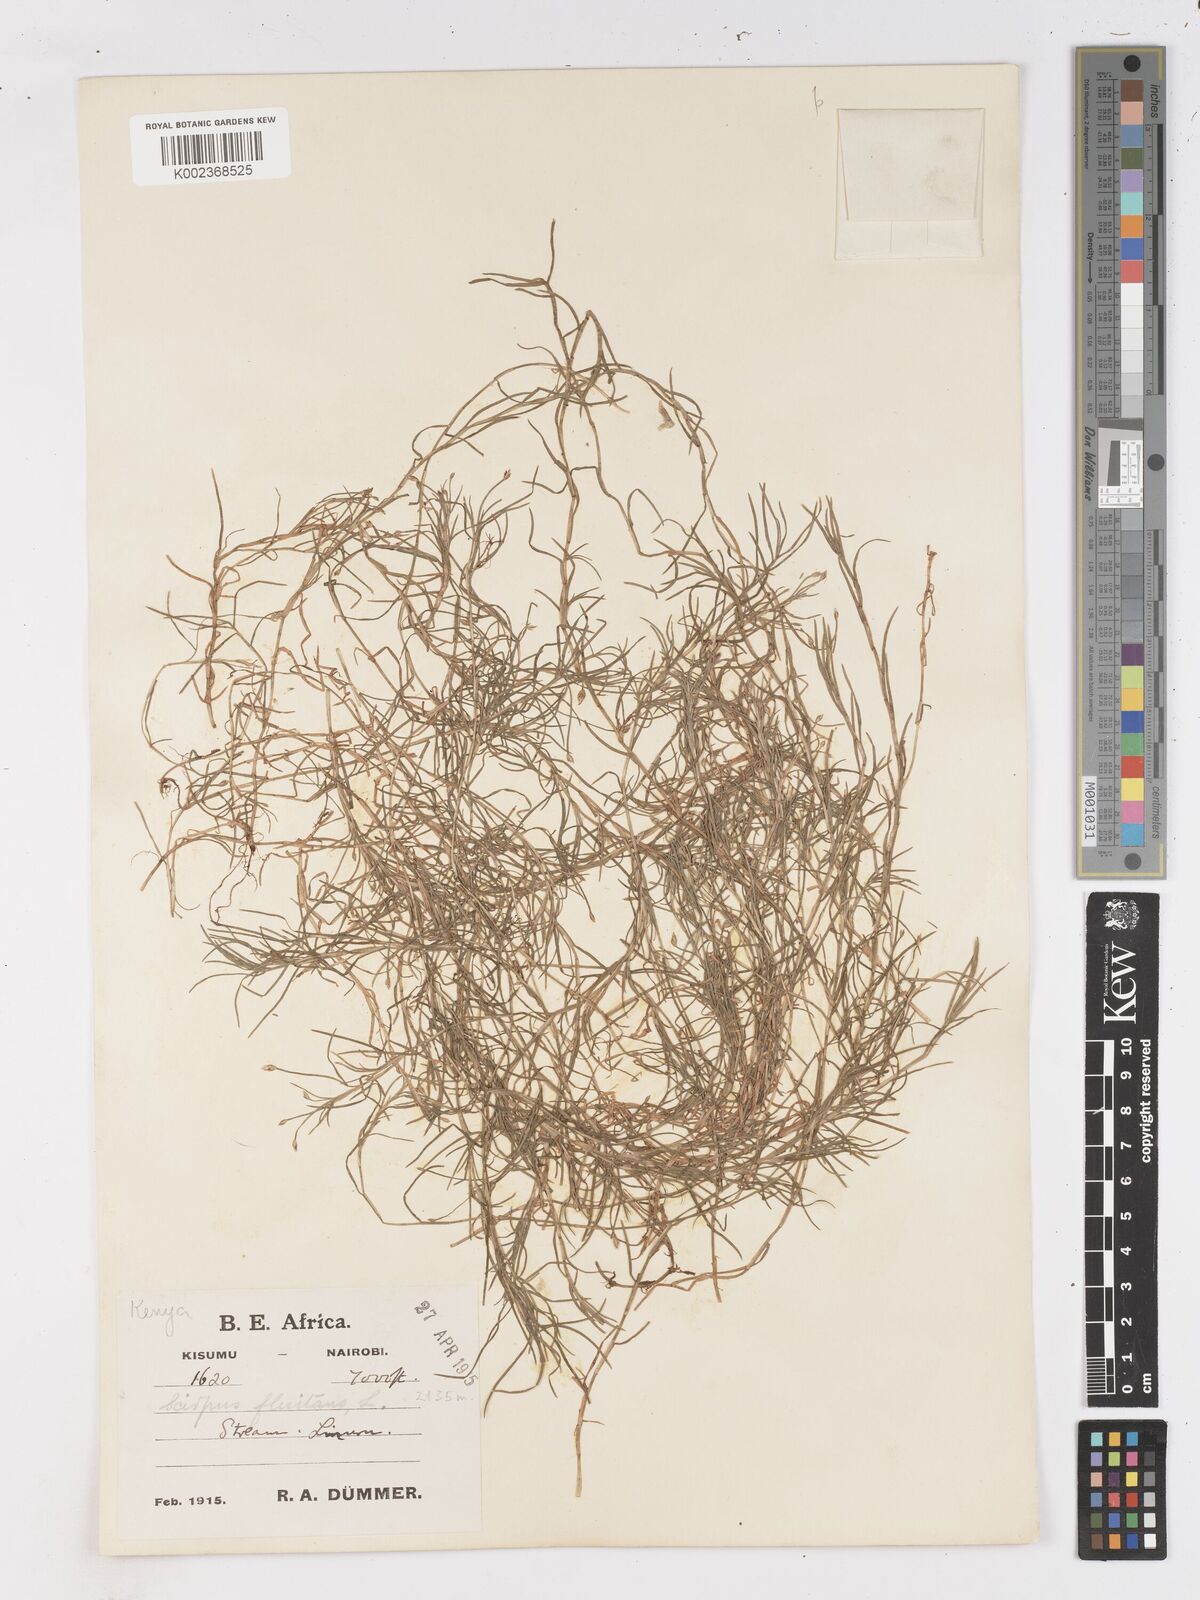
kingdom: Plantae
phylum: Tracheophyta
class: Liliopsida
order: Poales
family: Cyperaceae
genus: Isolepis
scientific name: Isolepis fluitans
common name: Floating club-rush
